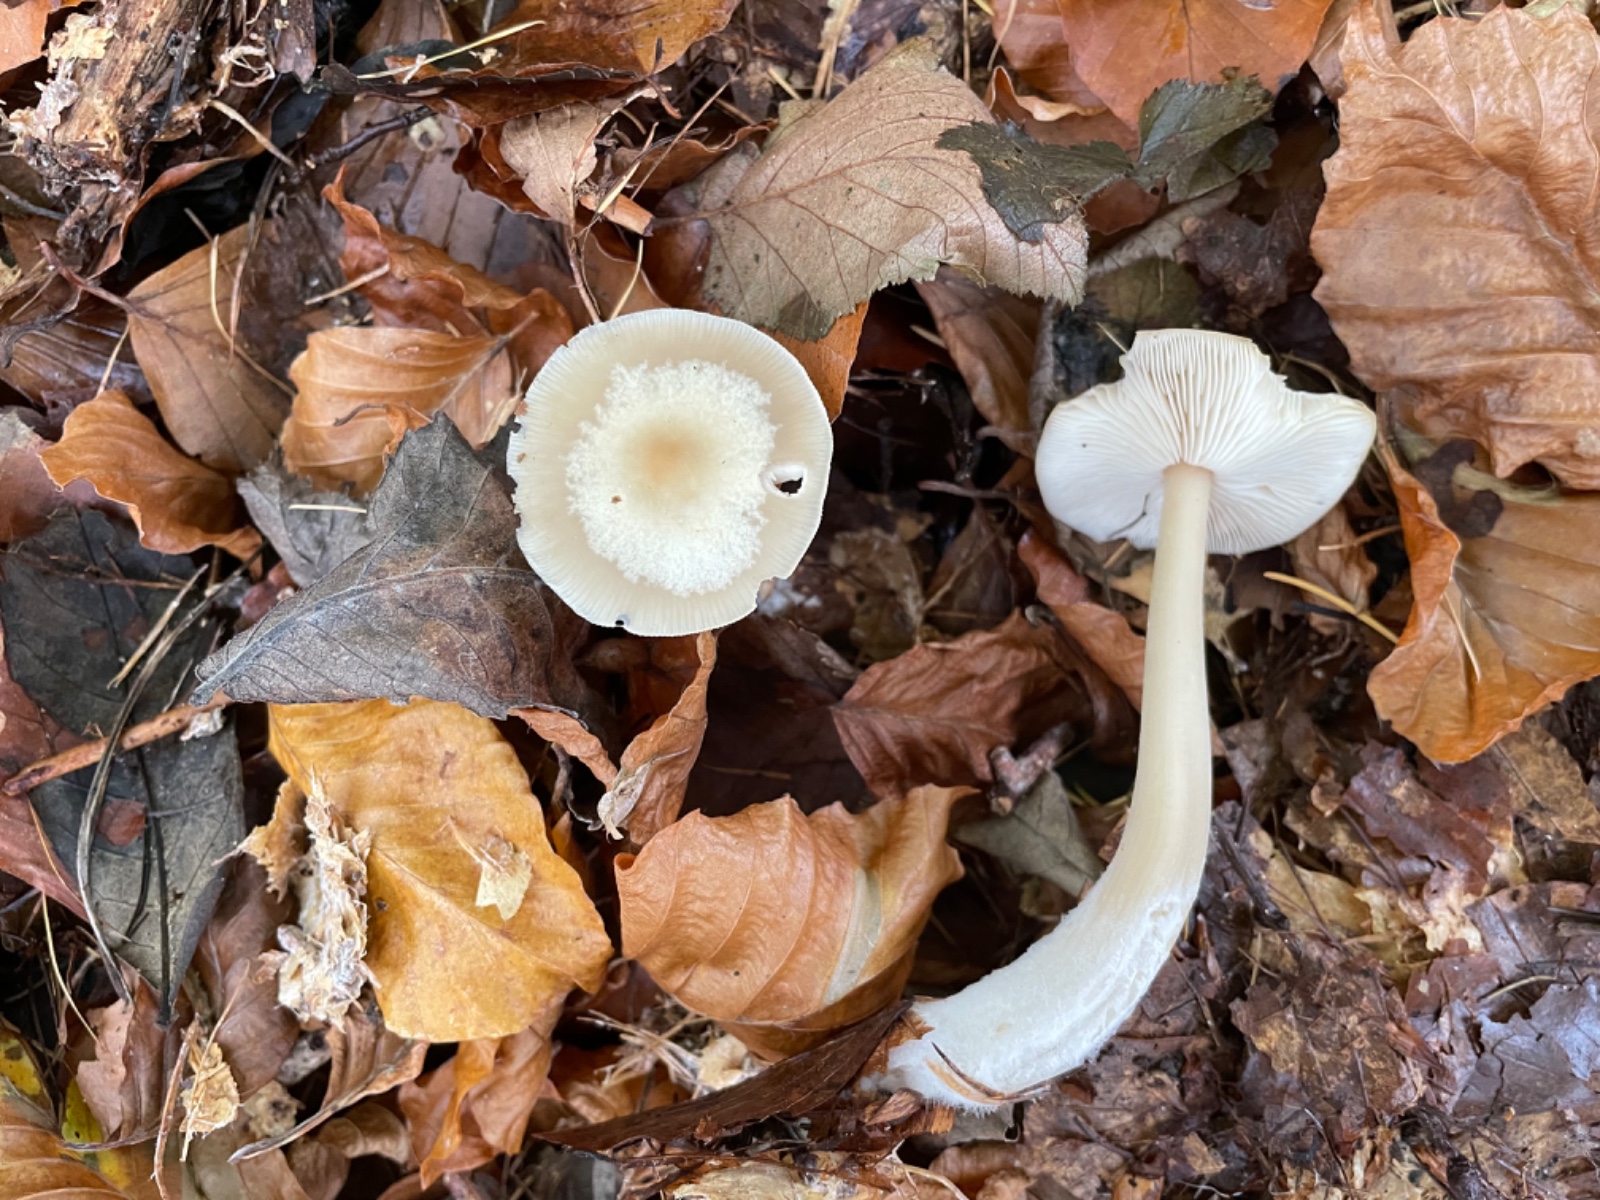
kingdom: Fungi
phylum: Basidiomycota
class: Agaricomycetes
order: Agaricales
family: Omphalotaceae
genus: Rhodocollybia
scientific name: Rhodocollybia asema
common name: horngrå fladhat
